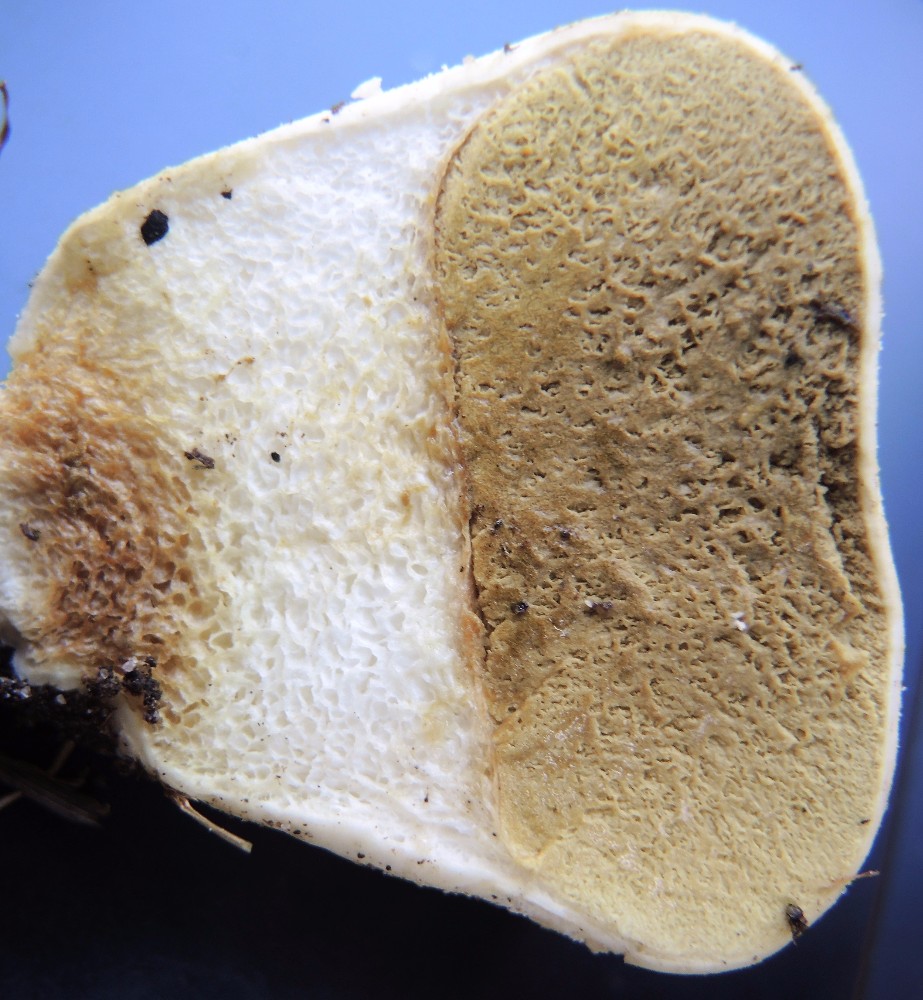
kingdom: Fungi
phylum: Basidiomycota
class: Agaricomycetes
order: Agaricales
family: Lycoperdaceae
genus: Lycoperdon
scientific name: Lycoperdon pratense
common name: flad støvbold
